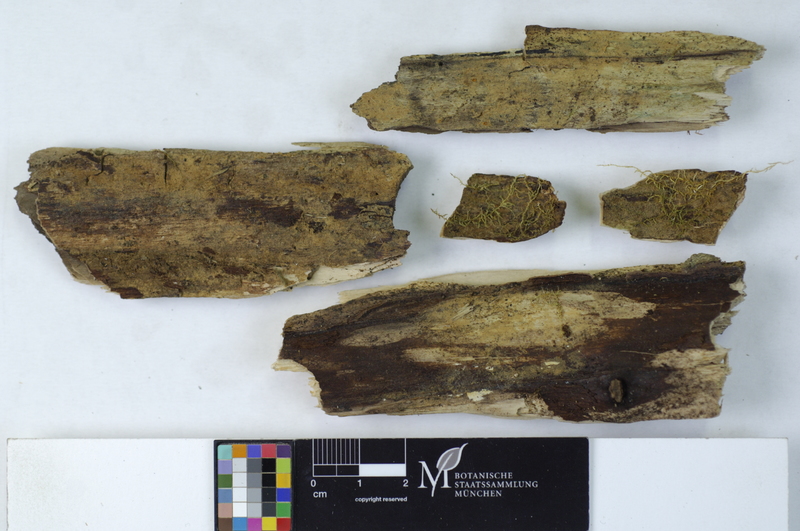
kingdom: Fungi
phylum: Basidiomycota
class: Agaricomycetes
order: Polyporales
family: Irpicaceae
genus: Ceriporia
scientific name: Ceriporia reticulata
